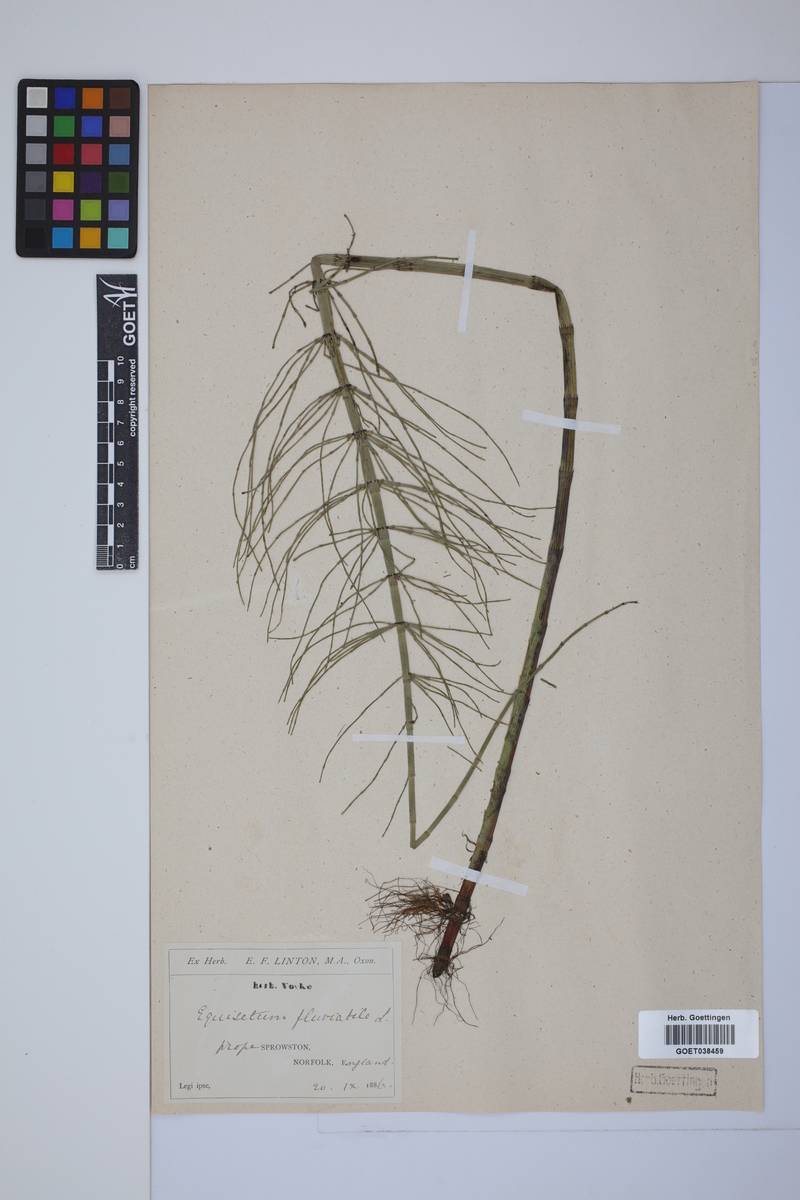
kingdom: Plantae
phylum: Tracheophyta
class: Polypodiopsida
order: Equisetales
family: Equisetaceae
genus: Equisetum
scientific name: Equisetum fluviatile
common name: Water horsetail
